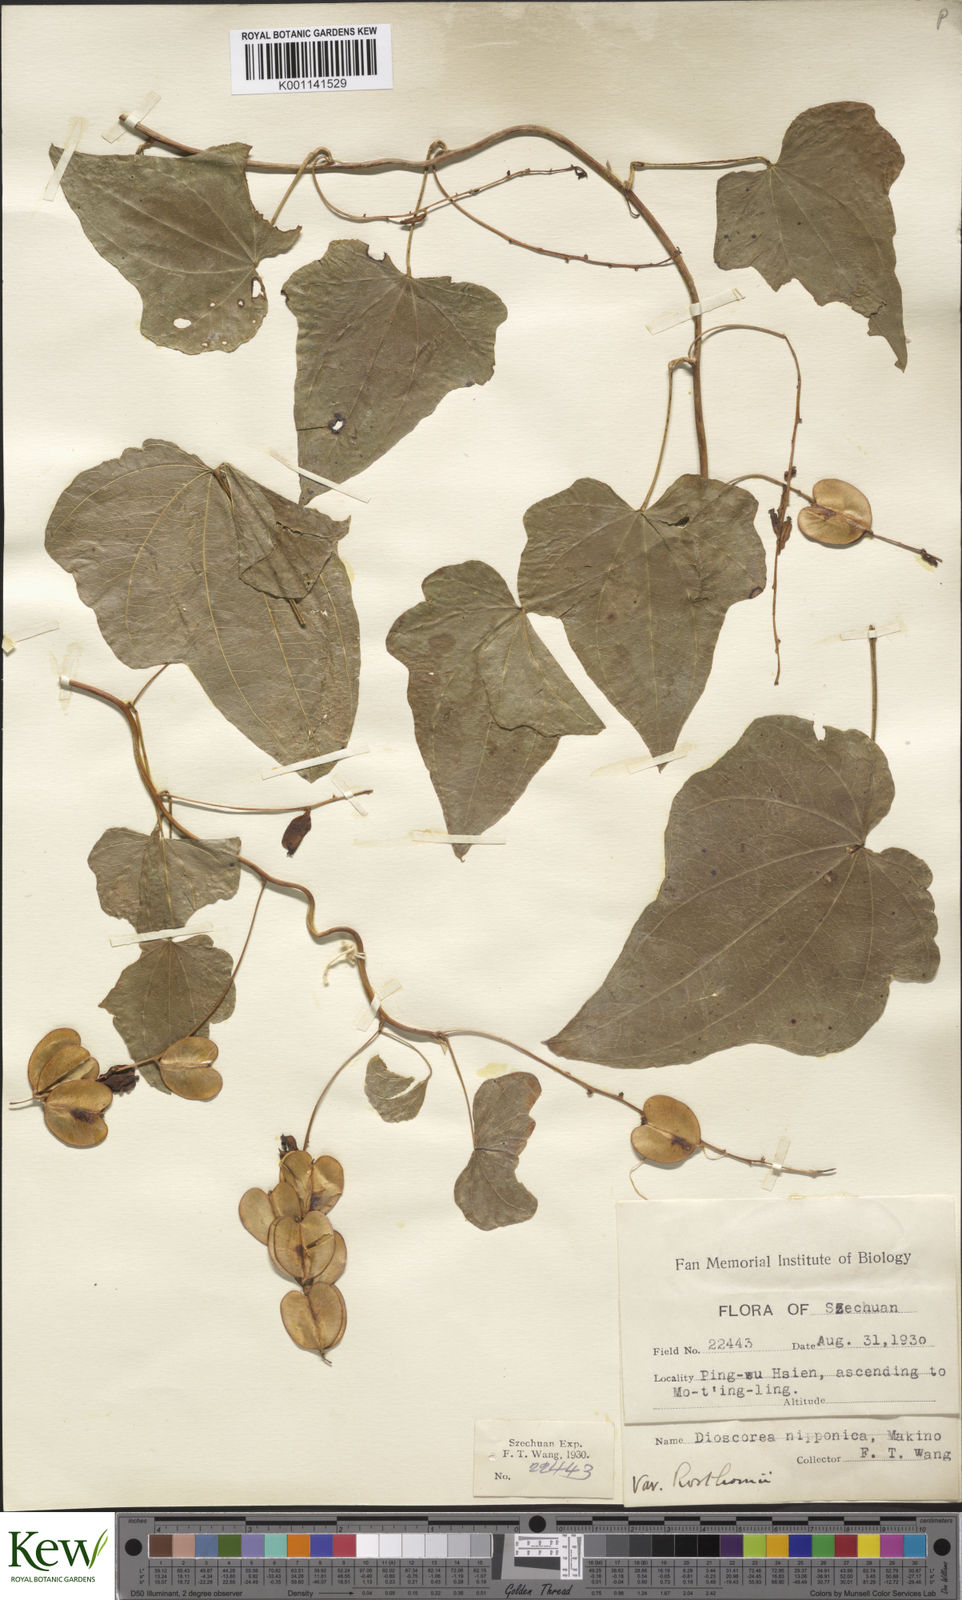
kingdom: Plantae
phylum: Tracheophyta
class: Liliopsida
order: Dioscoreales
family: Dioscoreaceae
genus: Dioscorea
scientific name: Dioscorea nipponica
